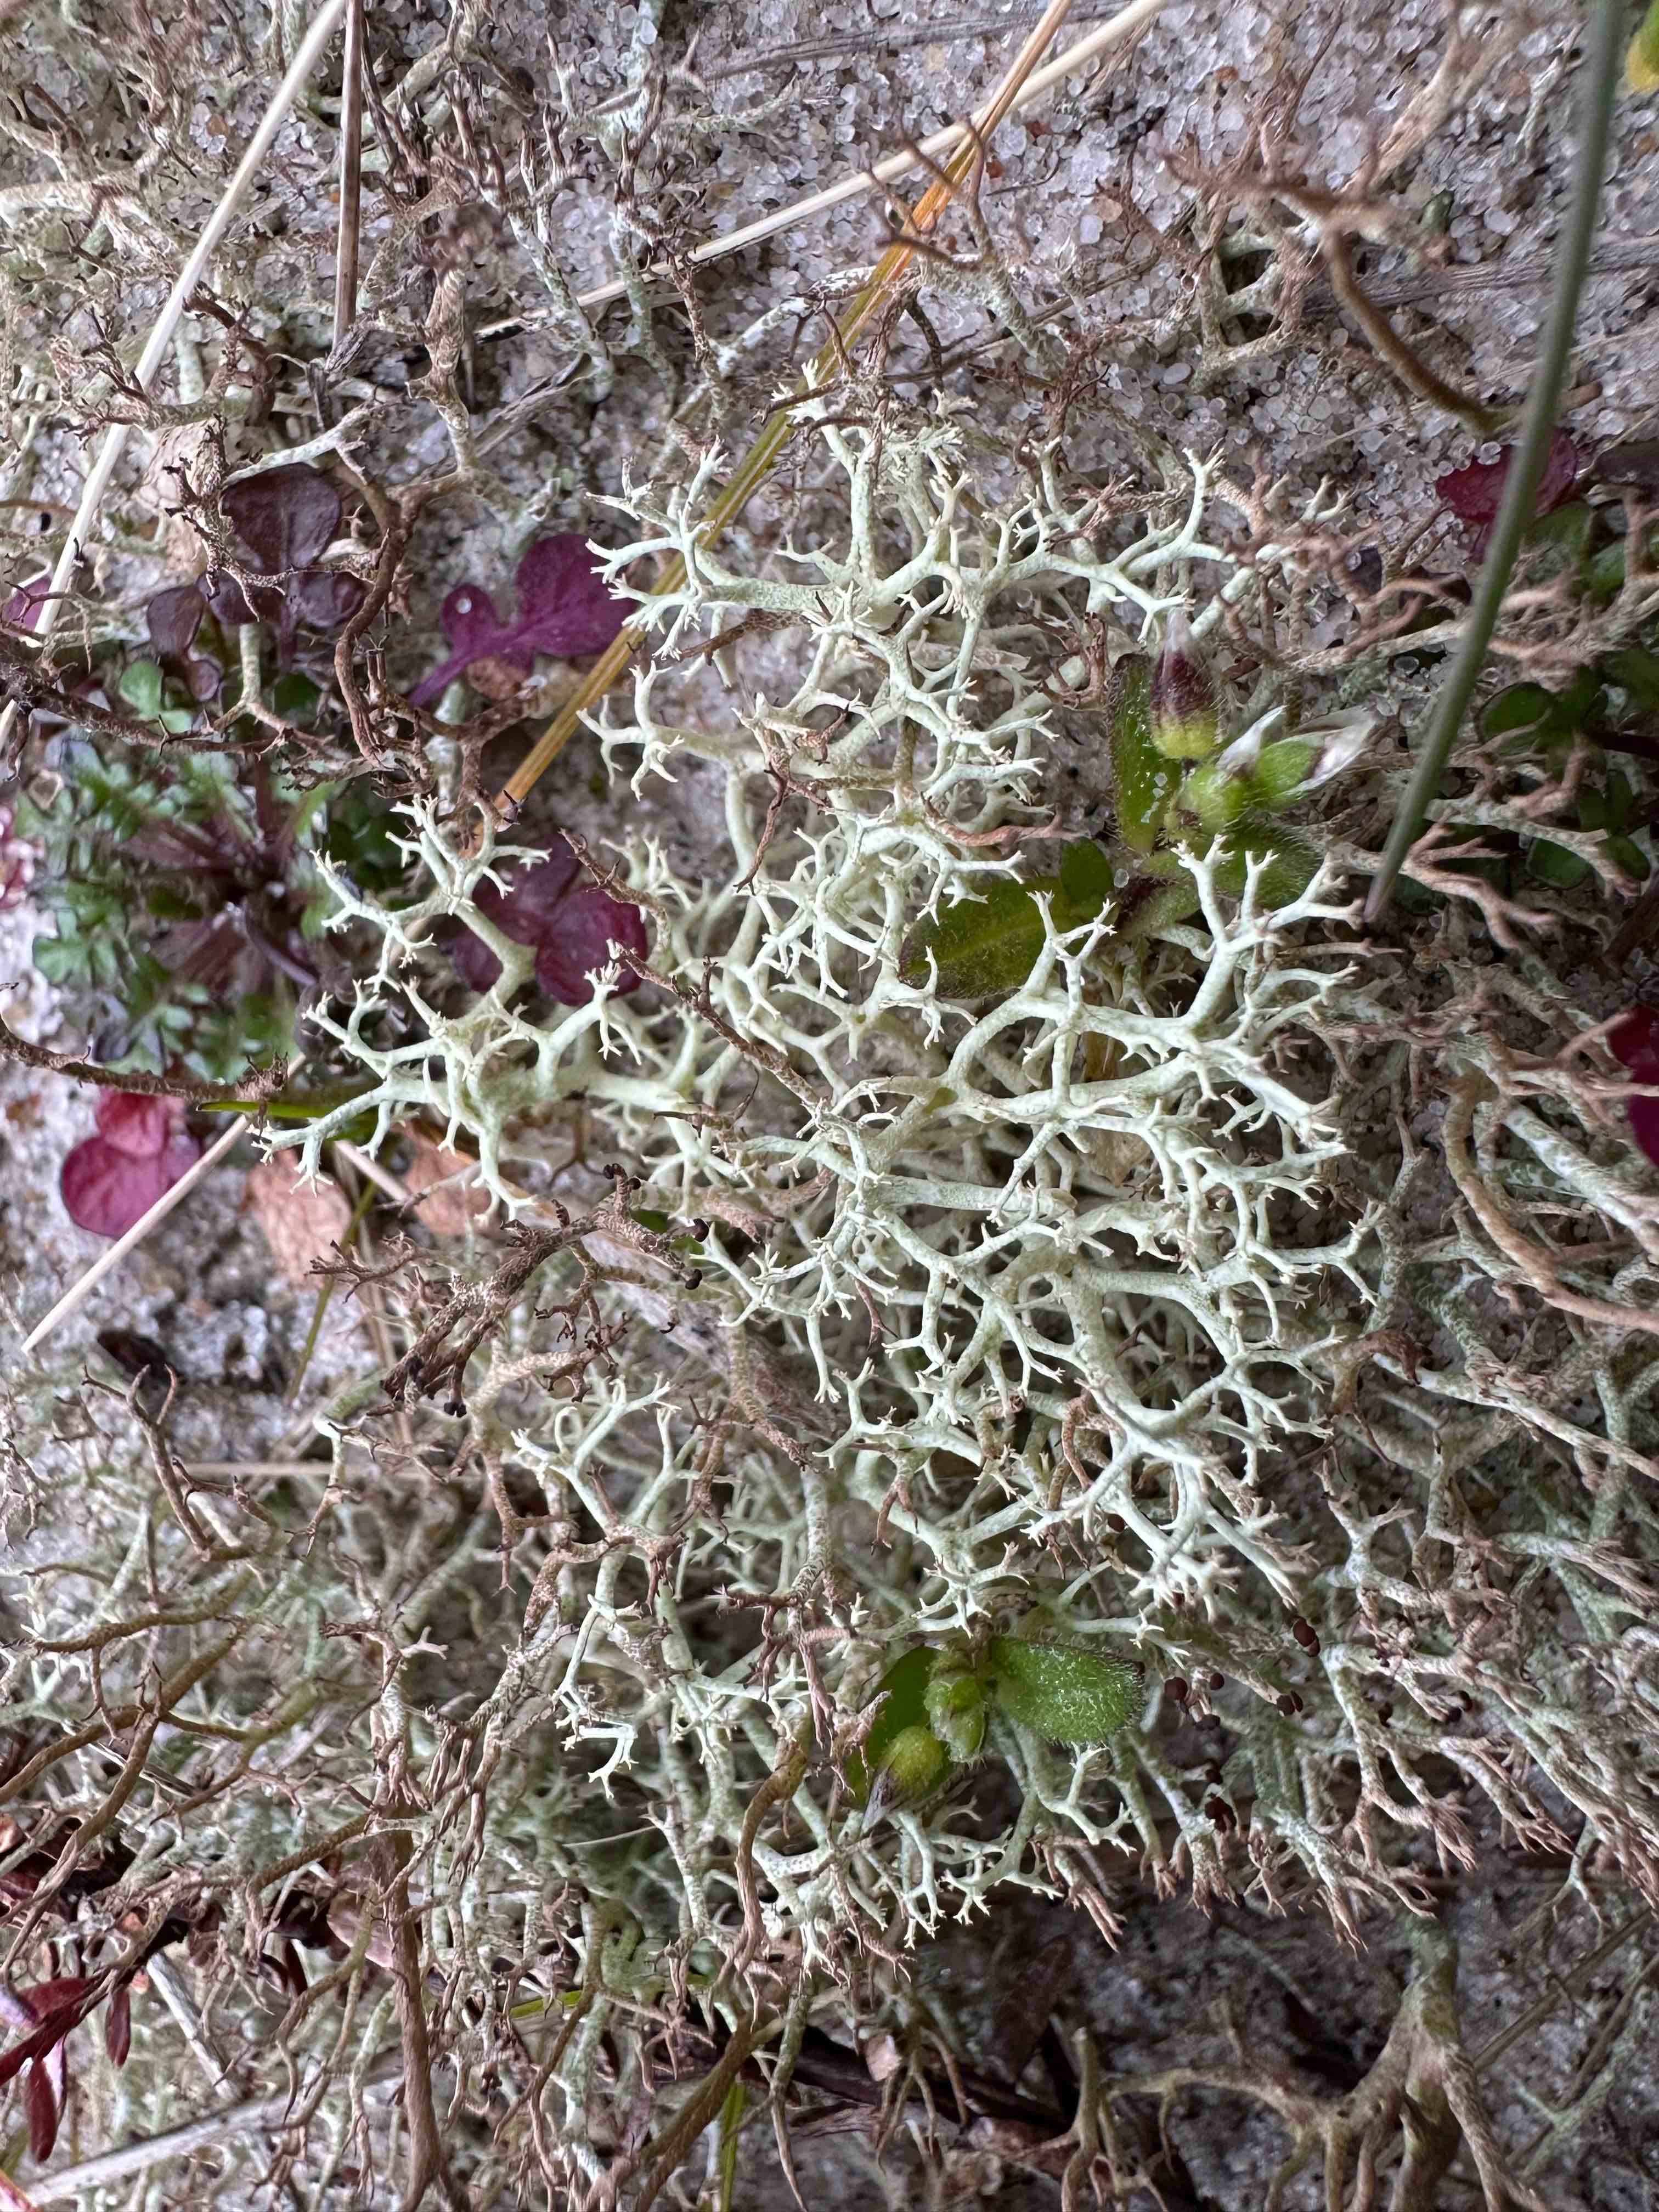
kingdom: Fungi
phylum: Ascomycota
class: Lecanoromycetes
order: Lecanorales
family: Cladoniaceae
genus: Cladonia
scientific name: Cladonia portentosa
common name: hede-rensdyrlav
